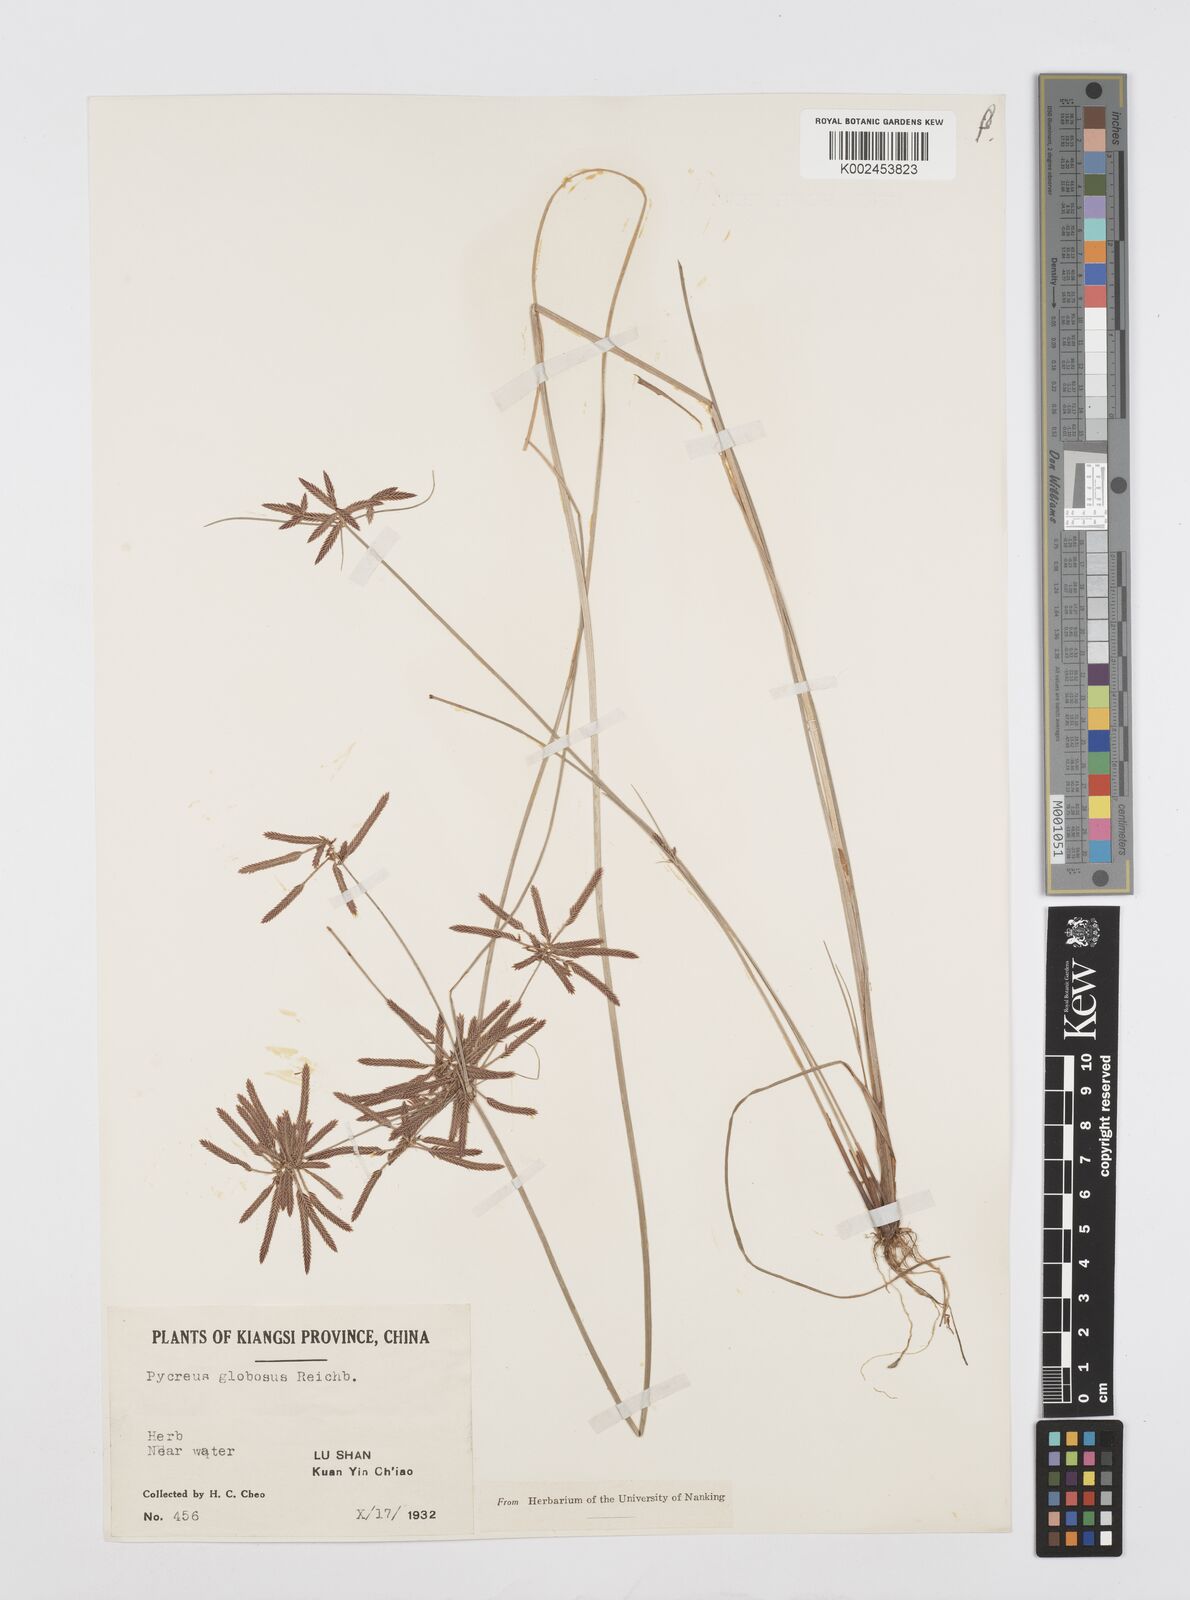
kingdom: Plantae
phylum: Tracheophyta
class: Liliopsida
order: Poales
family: Cyperaceae
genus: Cyperus
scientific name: Cyperus flavidus
